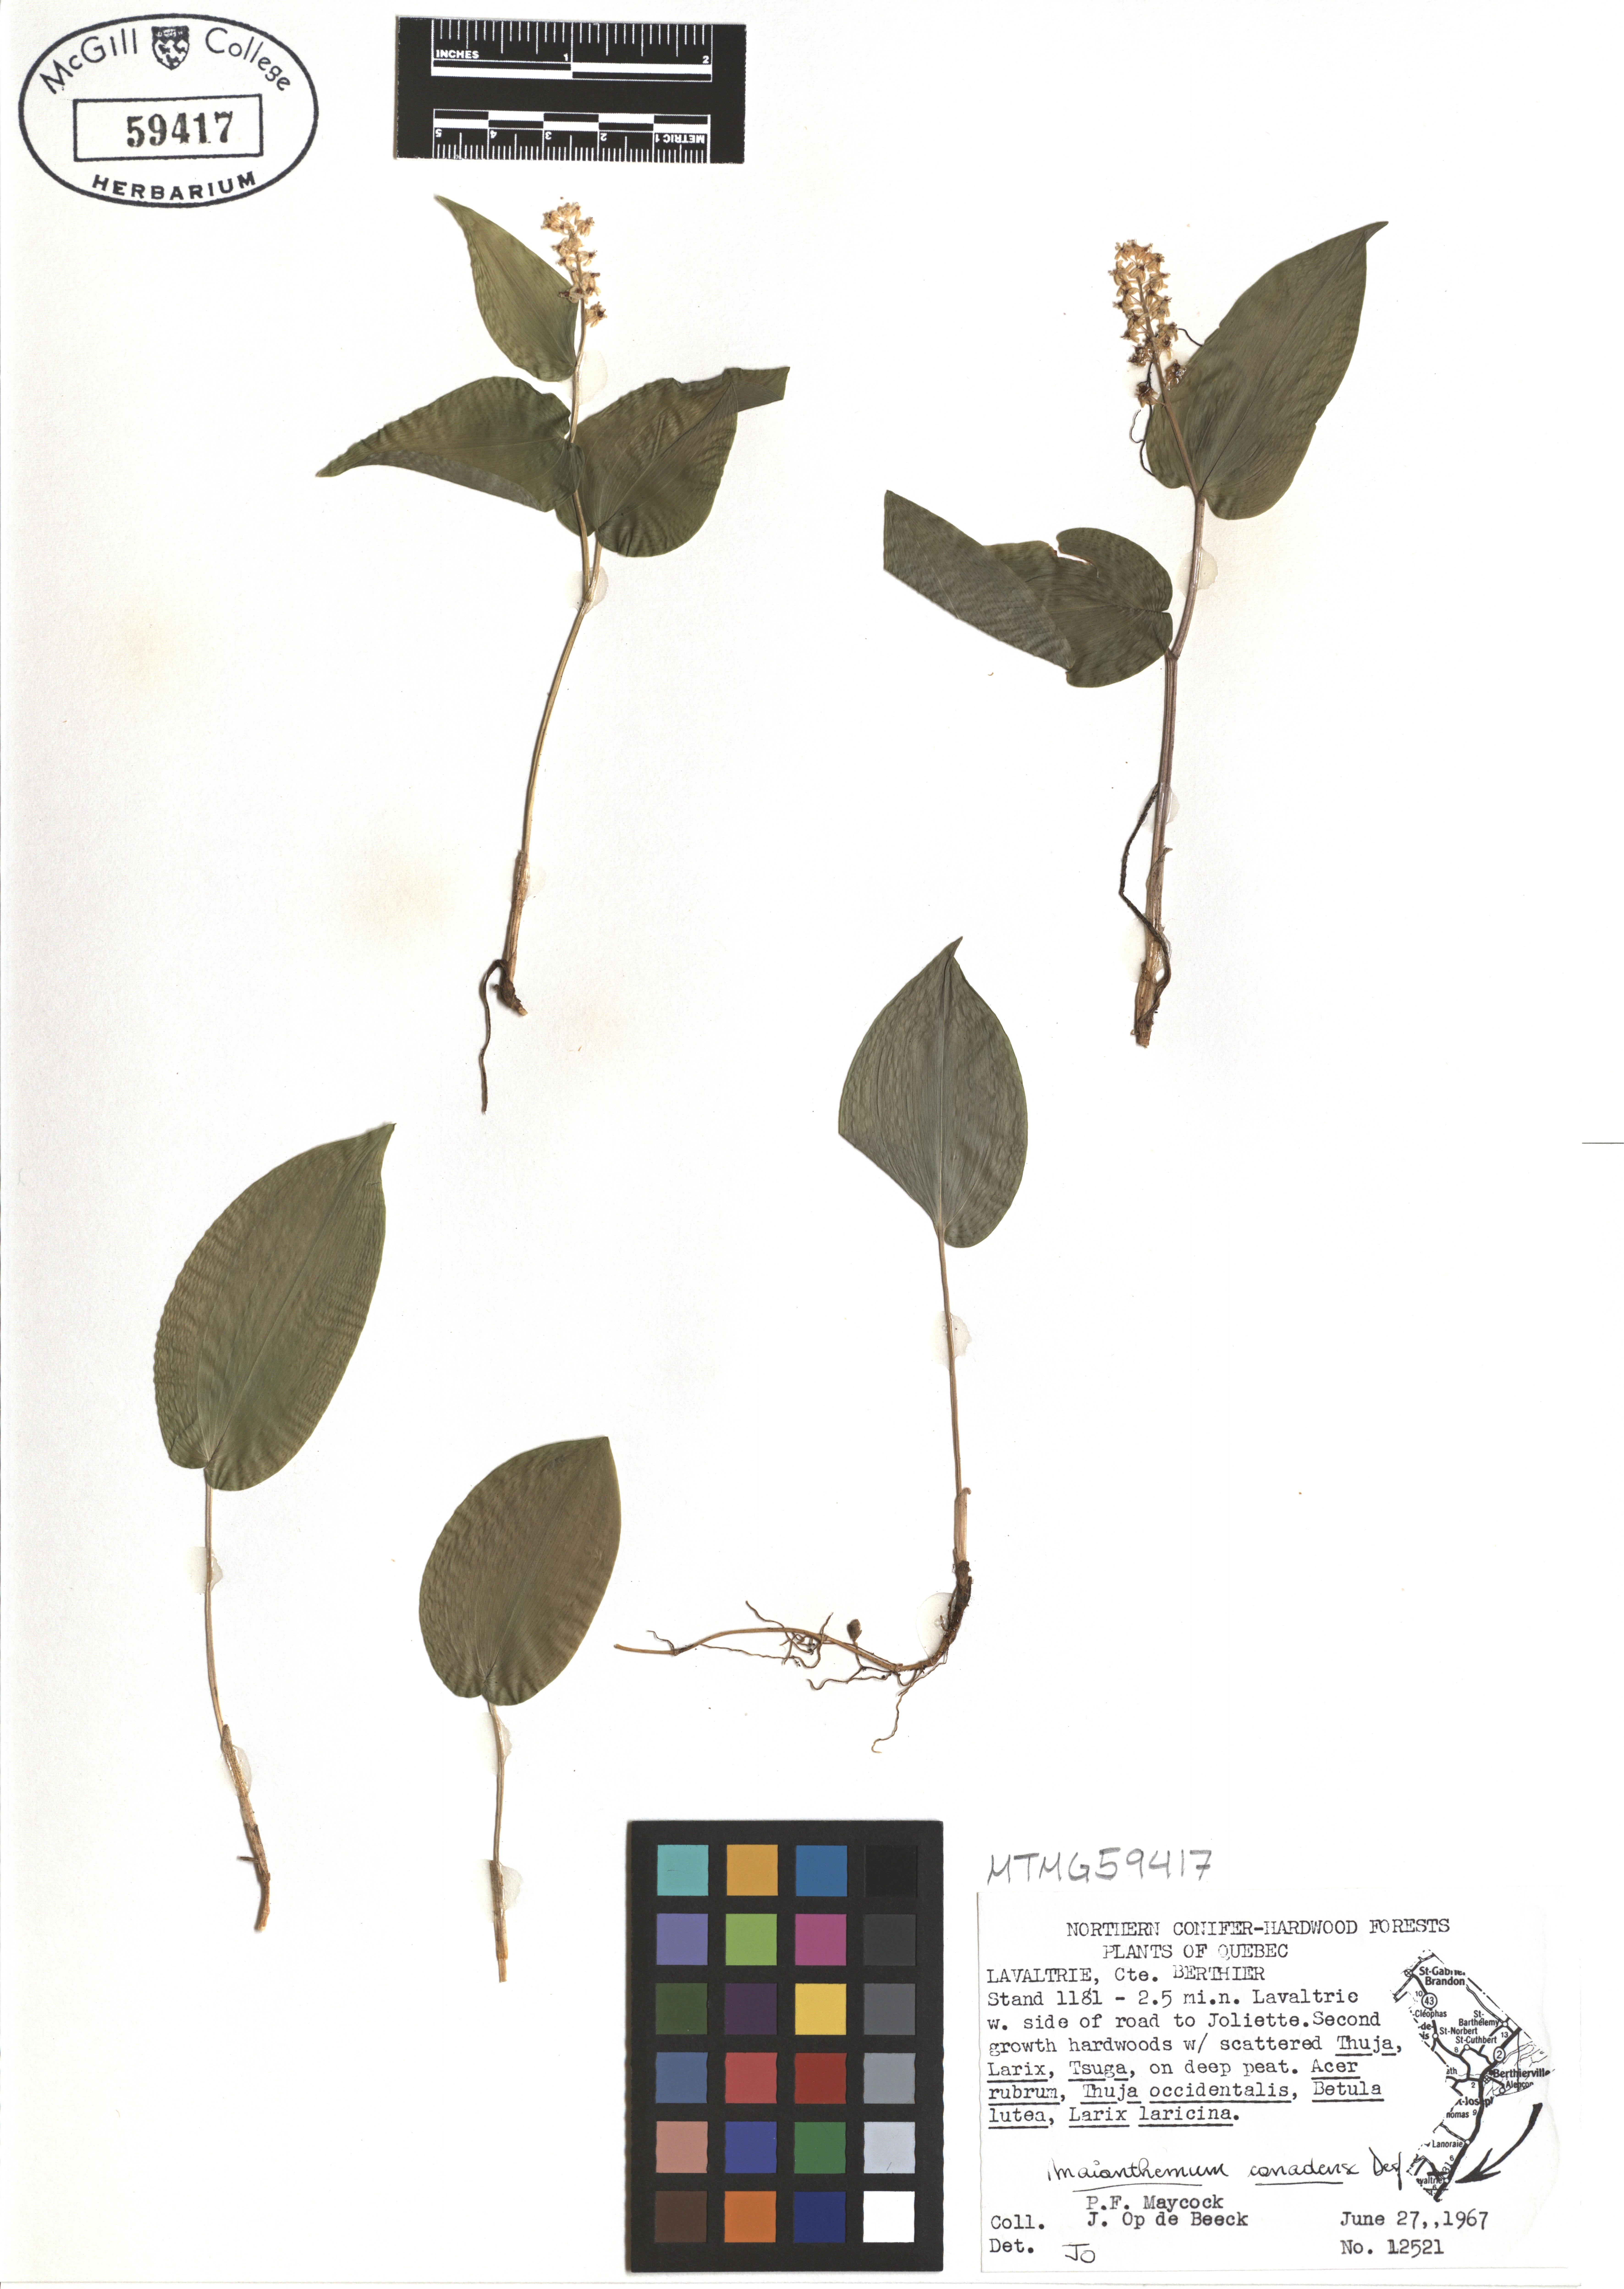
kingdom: Plantae
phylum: Tracheophyta
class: Liliopsida
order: Asparagales
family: Asparagaceae
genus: Maianthemum
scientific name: Maianthemum canadense
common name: False lily-of-the-valley
